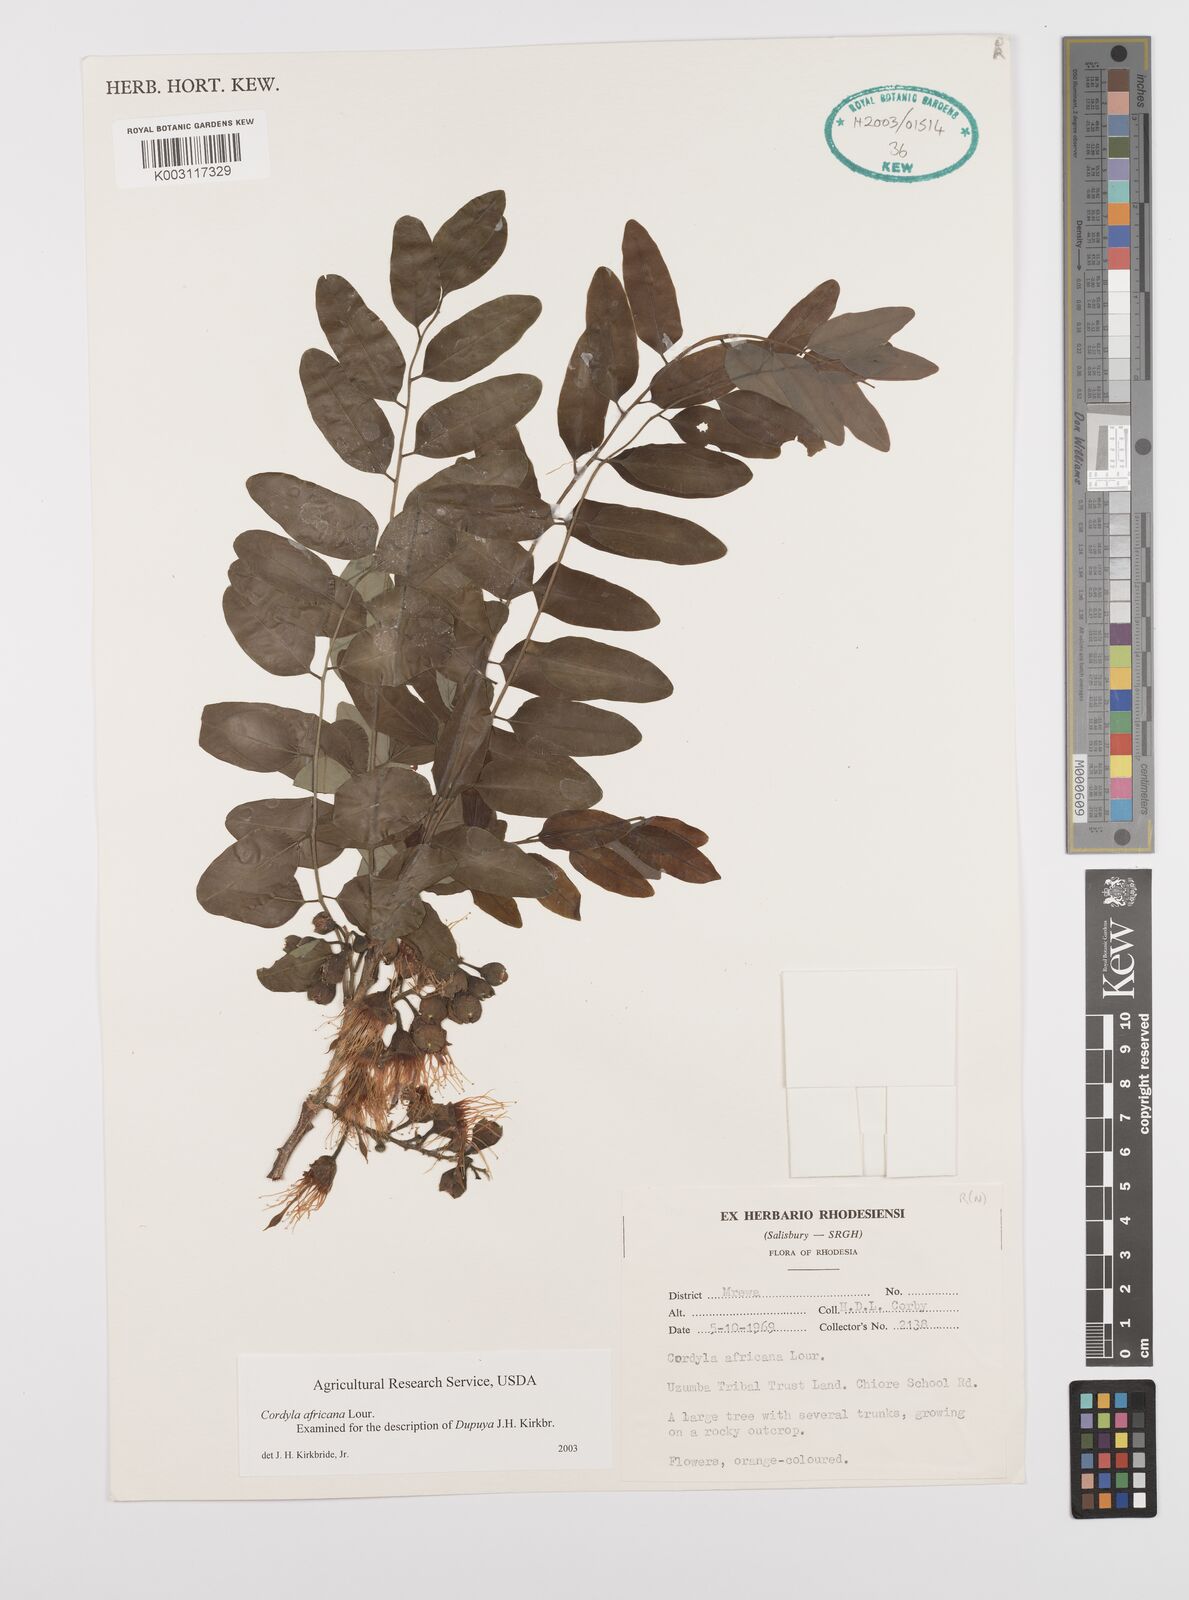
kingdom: Plantae
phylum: Tracheophyta
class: Magnoliopsida
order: Fabales
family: Fabaceae
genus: Cordyla
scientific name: Cordyla africana
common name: Wild mango
